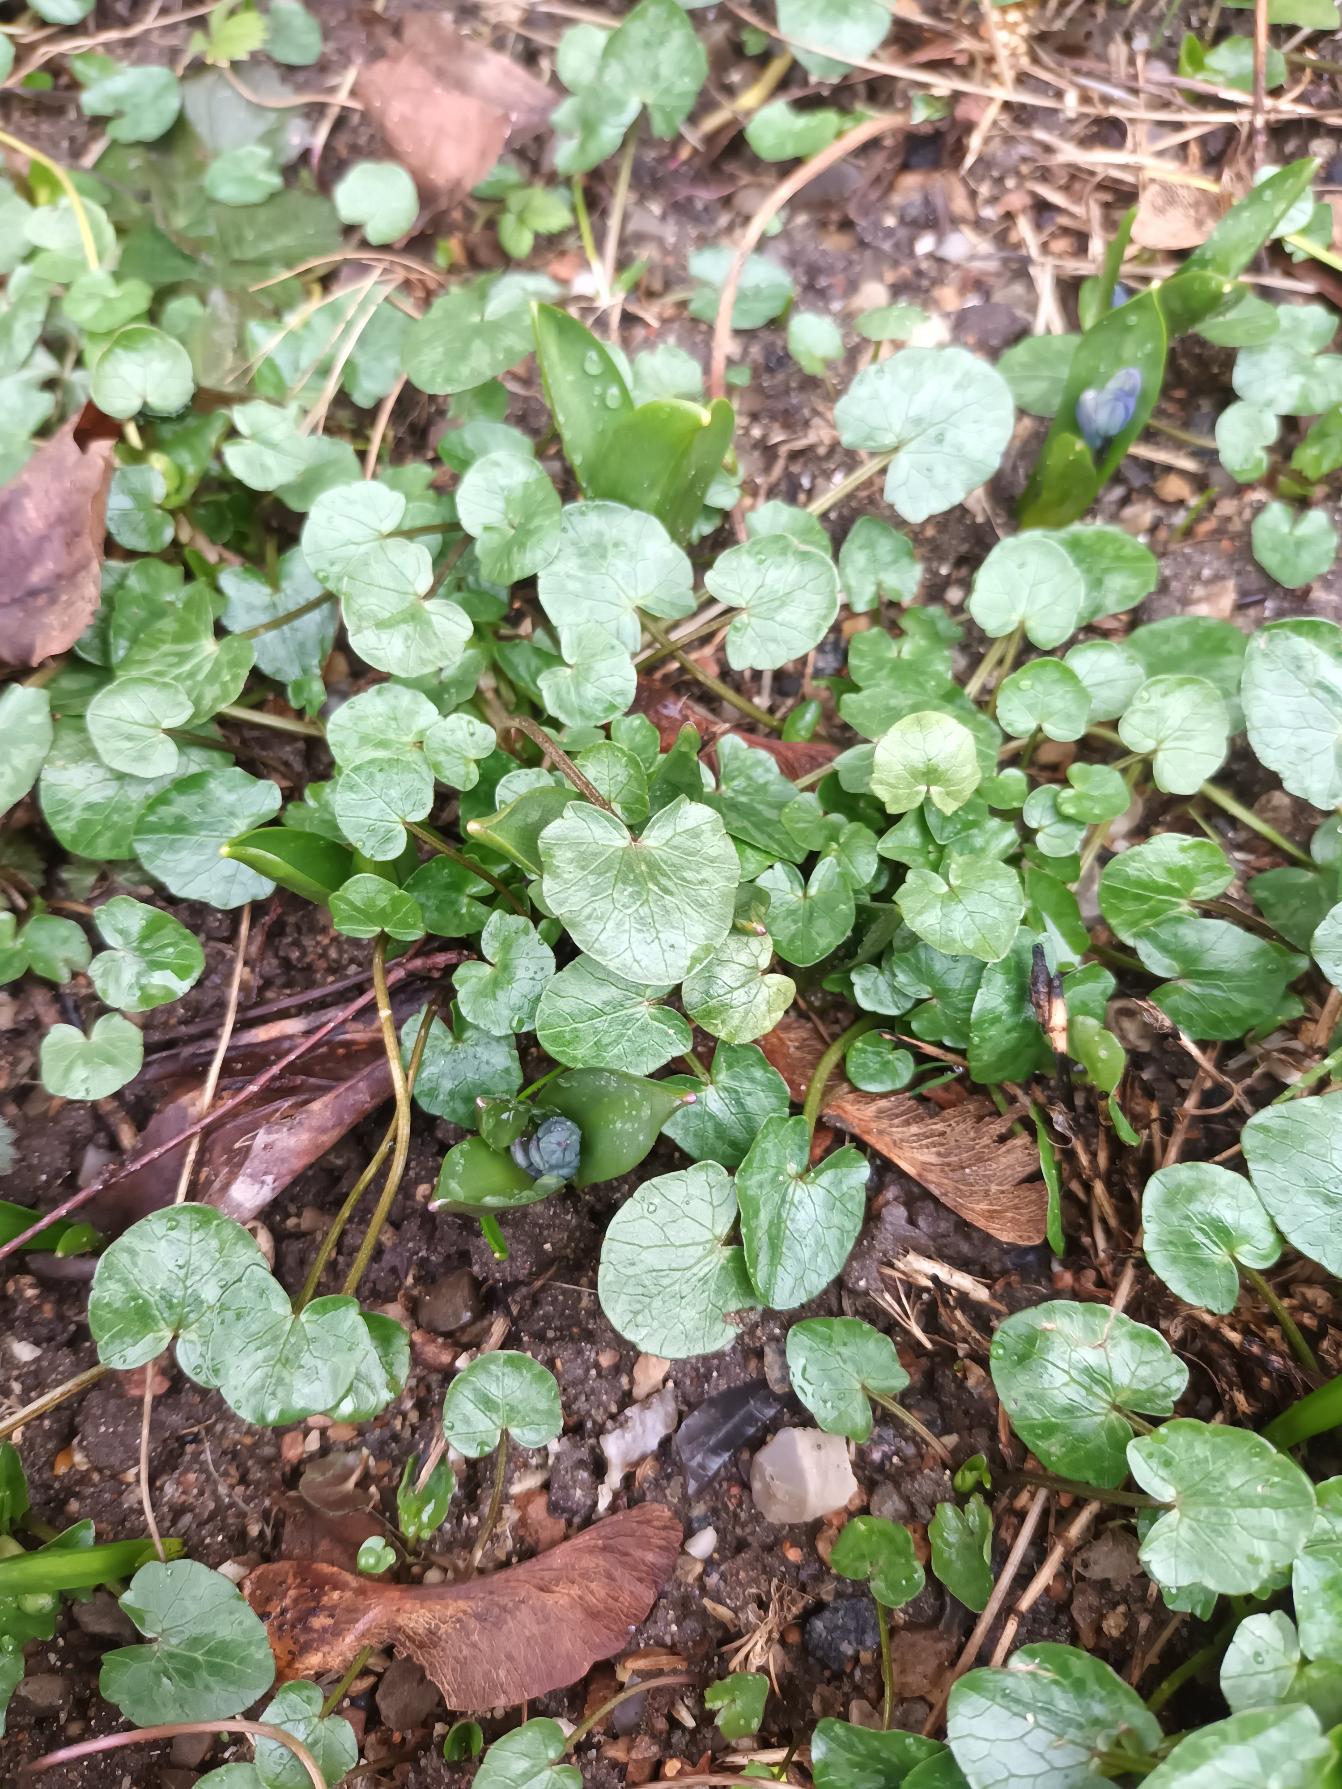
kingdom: Plantae
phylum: Tracheophyta
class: Magnoliopsida
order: Ranunculales
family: Ranunculaceae
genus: Ficaria
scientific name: Ficaria verna
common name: Vorterod
